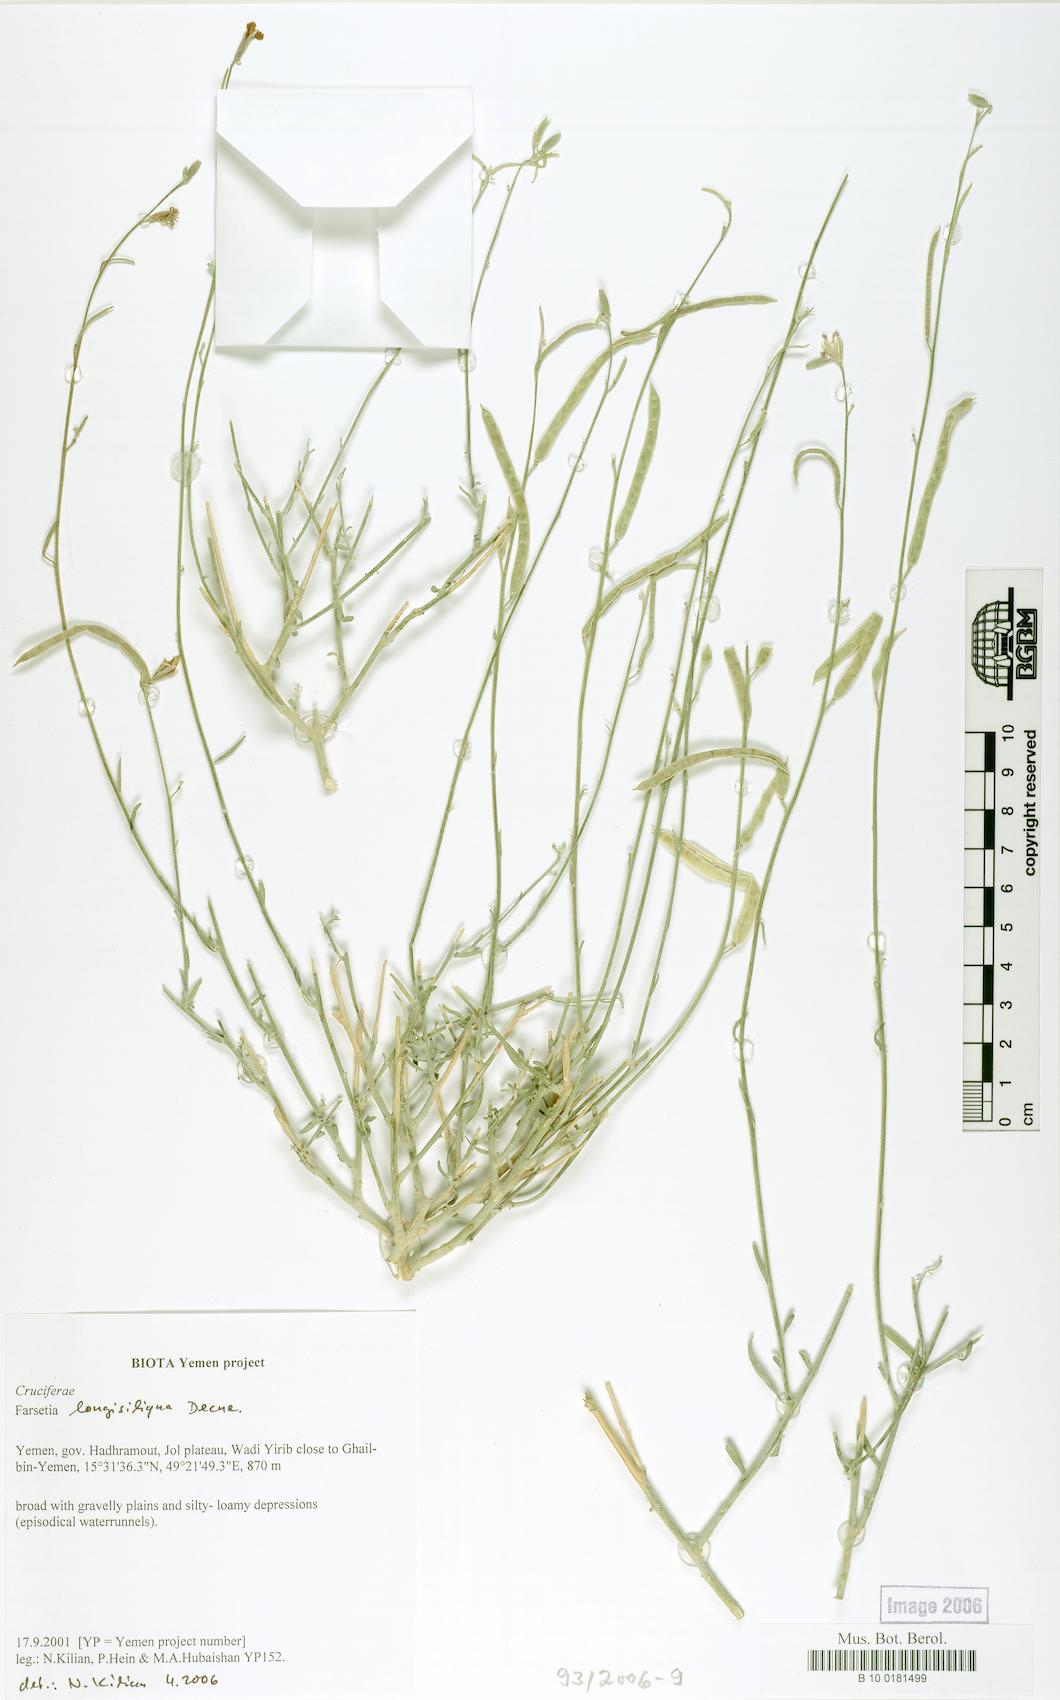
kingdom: Plantae
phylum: Tracheophyta
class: Magnoliopsida
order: Brassicales
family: Brassicaceae
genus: Farsetia
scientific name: Farsetia longisiliqua
